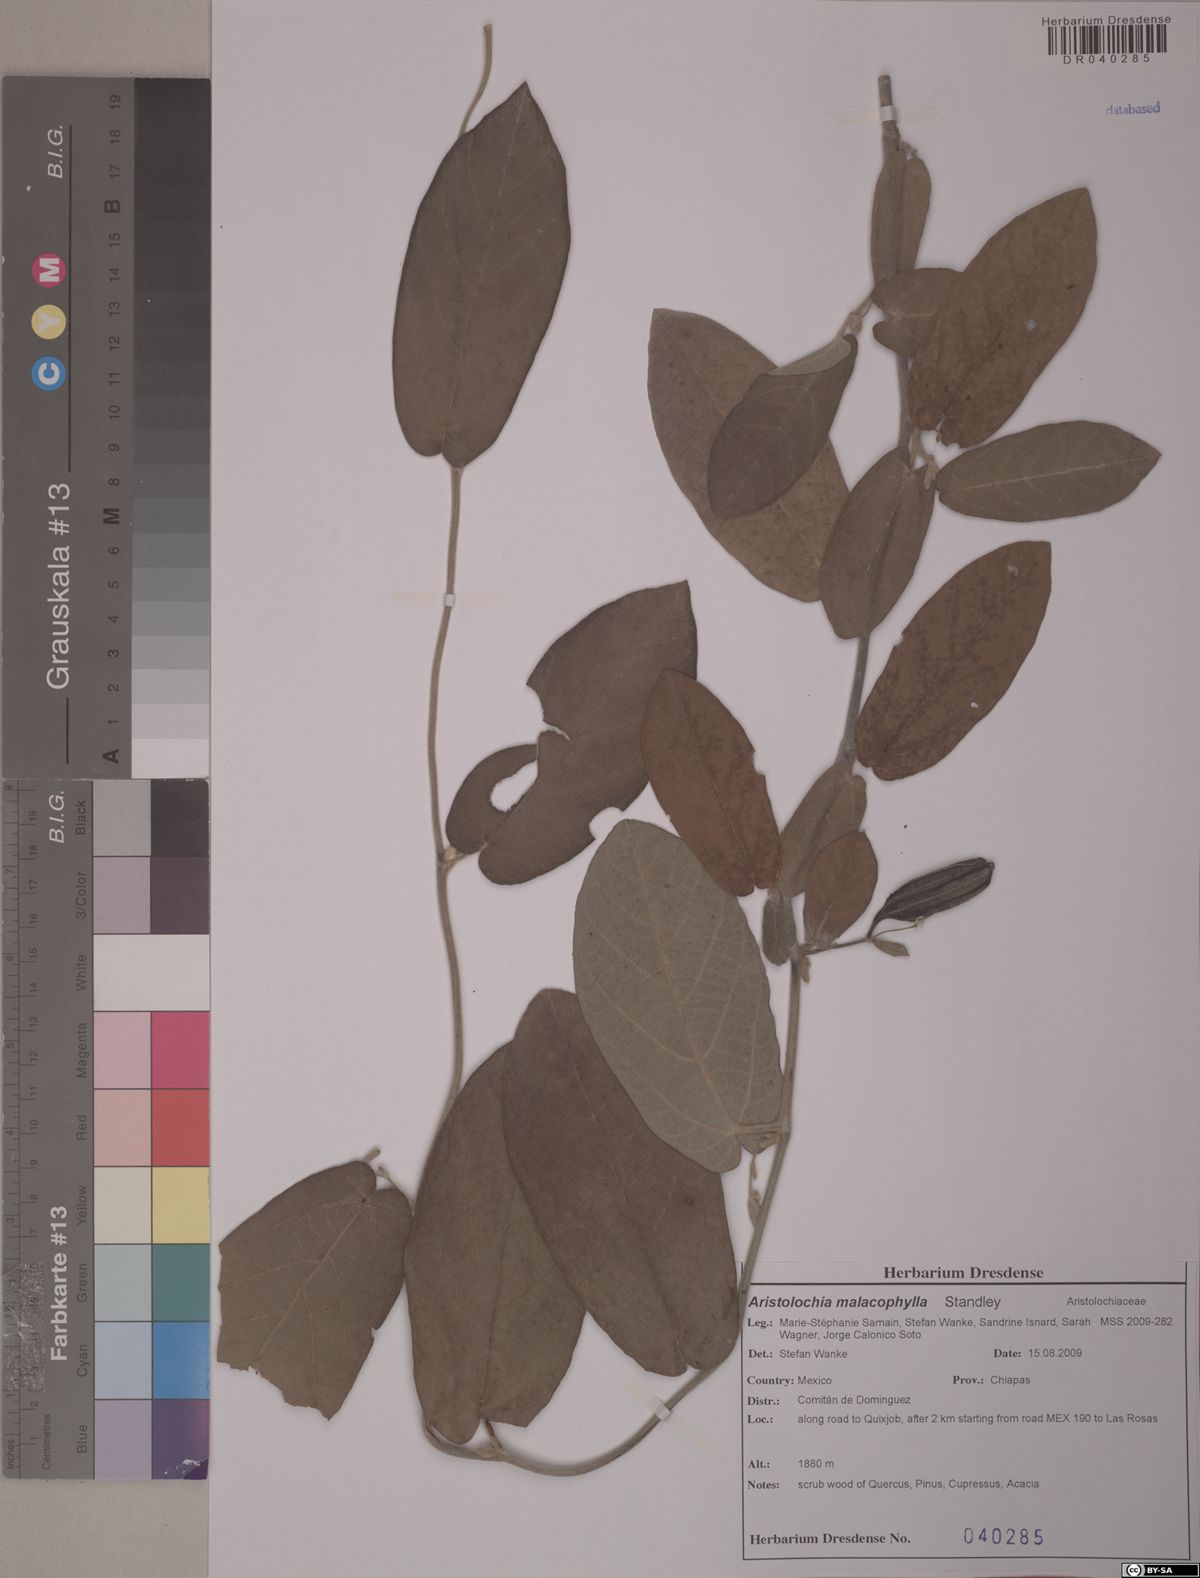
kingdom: Plantae
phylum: Tracheophyta
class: Magnoliopsida
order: Piperales
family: Aristolochiaceae
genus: Isotrema
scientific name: Isotrema malacophyllum
